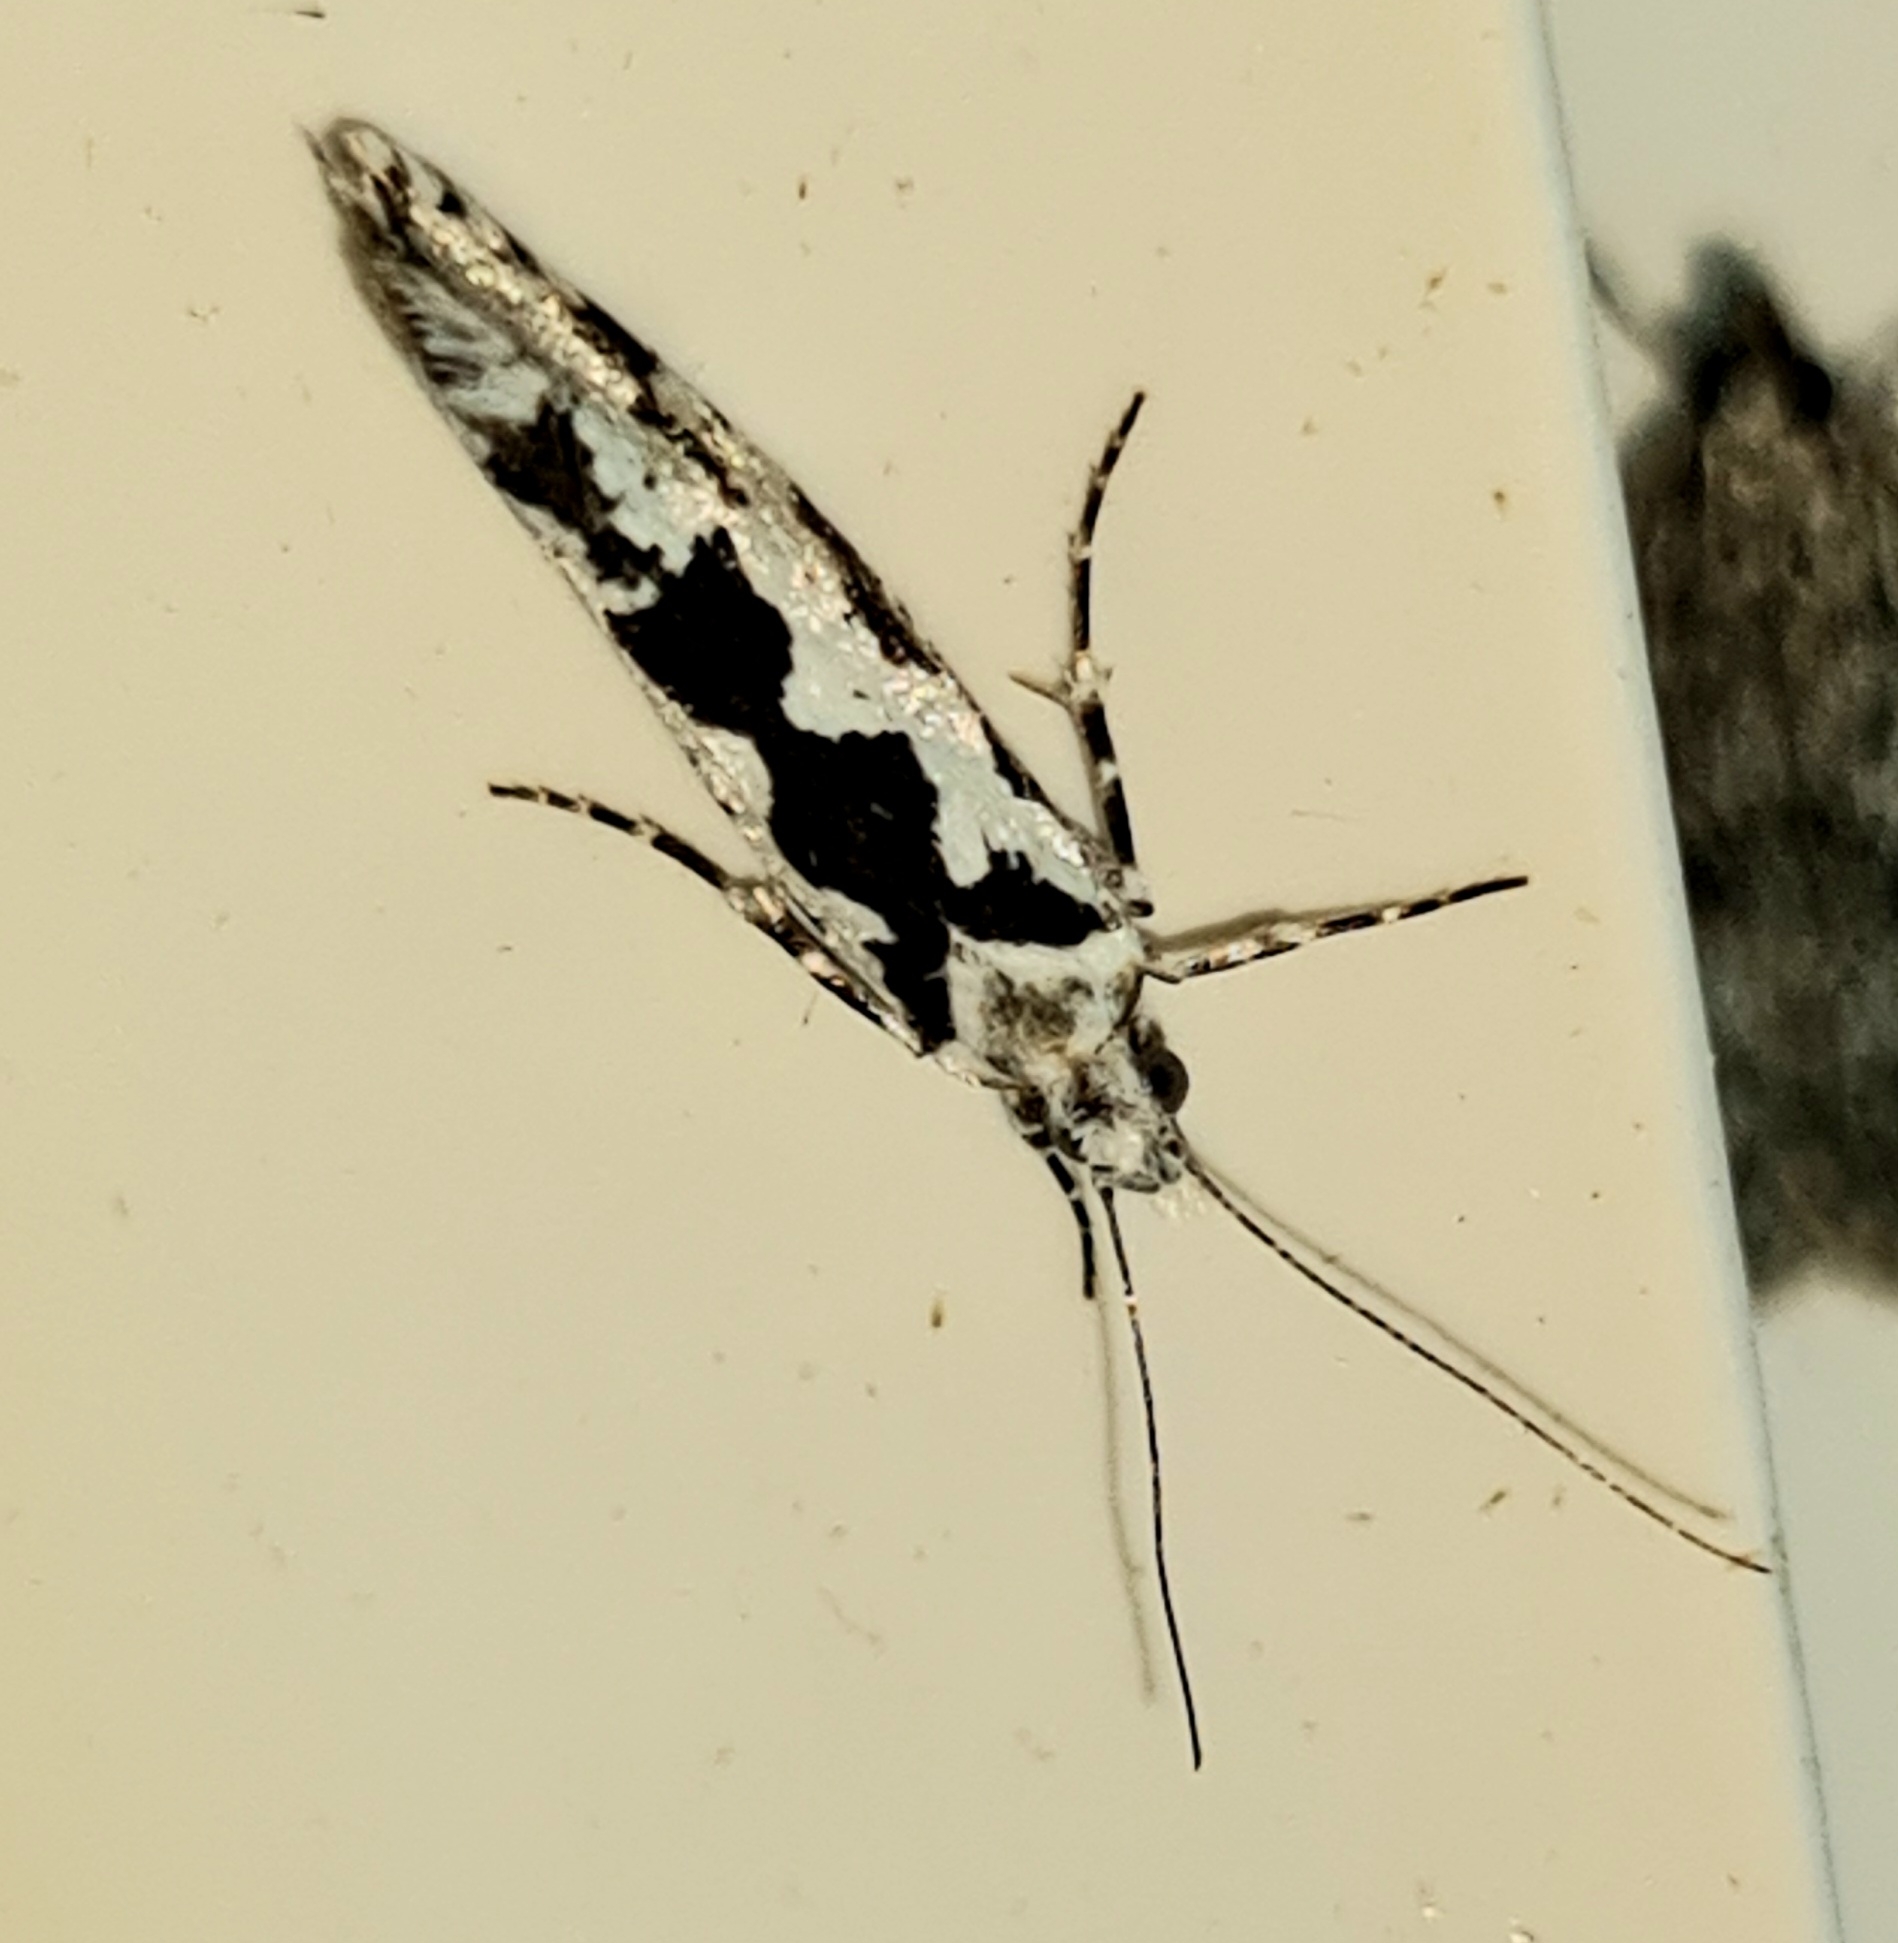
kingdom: Animalia
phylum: Arthropoda
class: Insecta
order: Lepidoptera
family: Plutellidae
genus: Ypsolophus
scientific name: Ypsolophus sequella
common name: Ahornmøl
